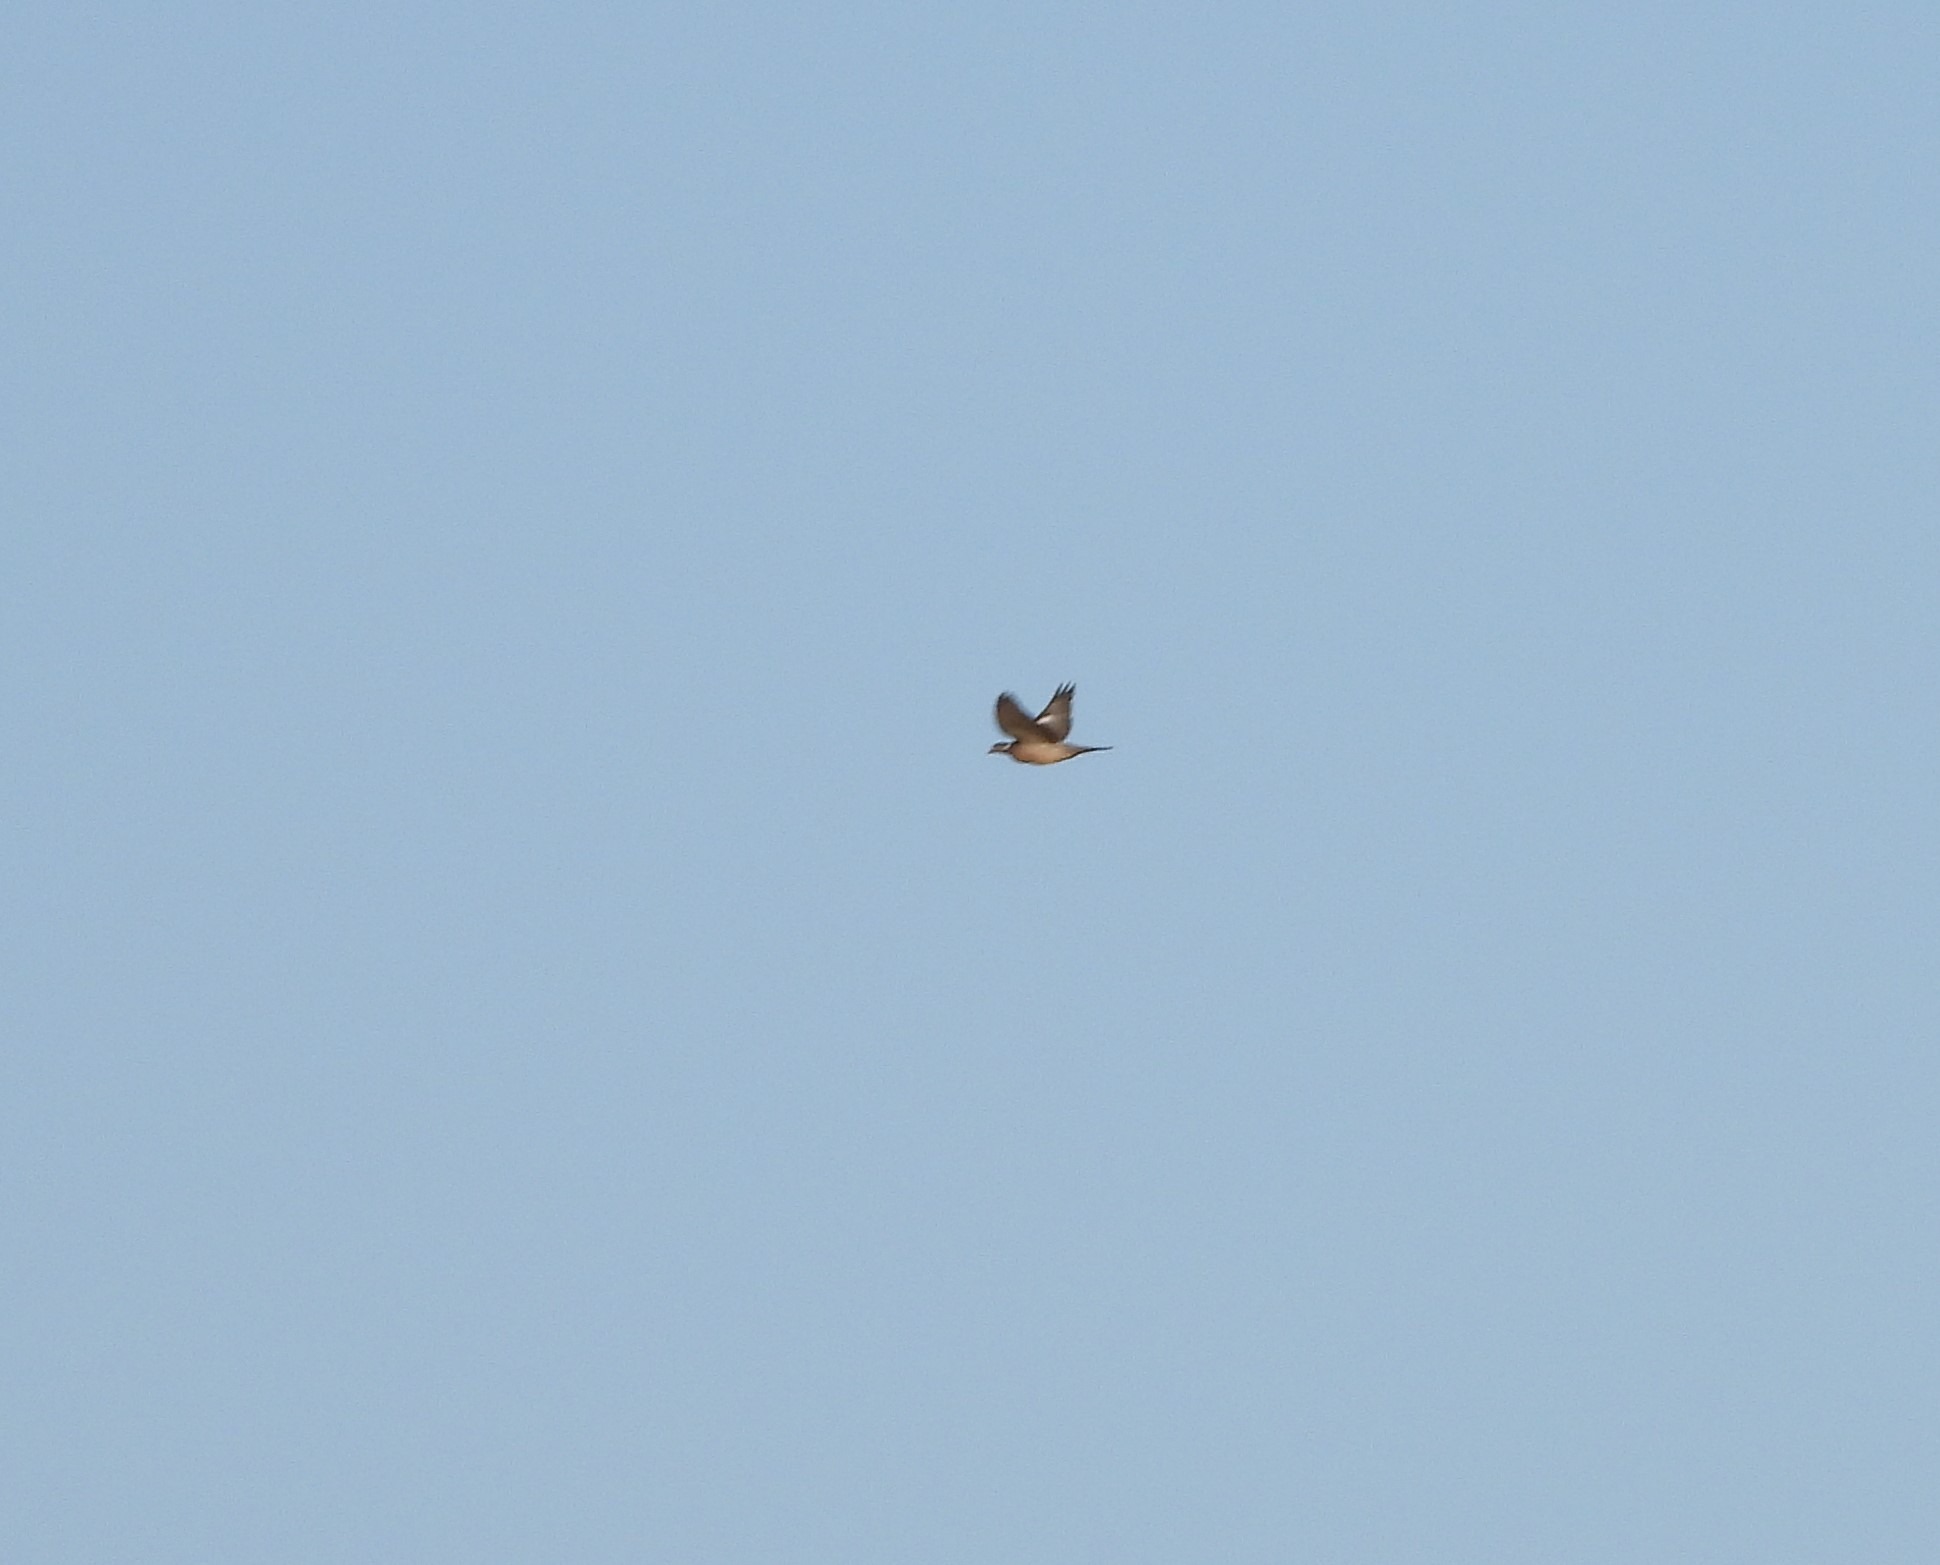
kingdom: Animalia
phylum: Chordata
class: Aves
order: Columbiformes
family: Columbidae
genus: Columba
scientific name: Columba palumbus
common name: Ringdue
